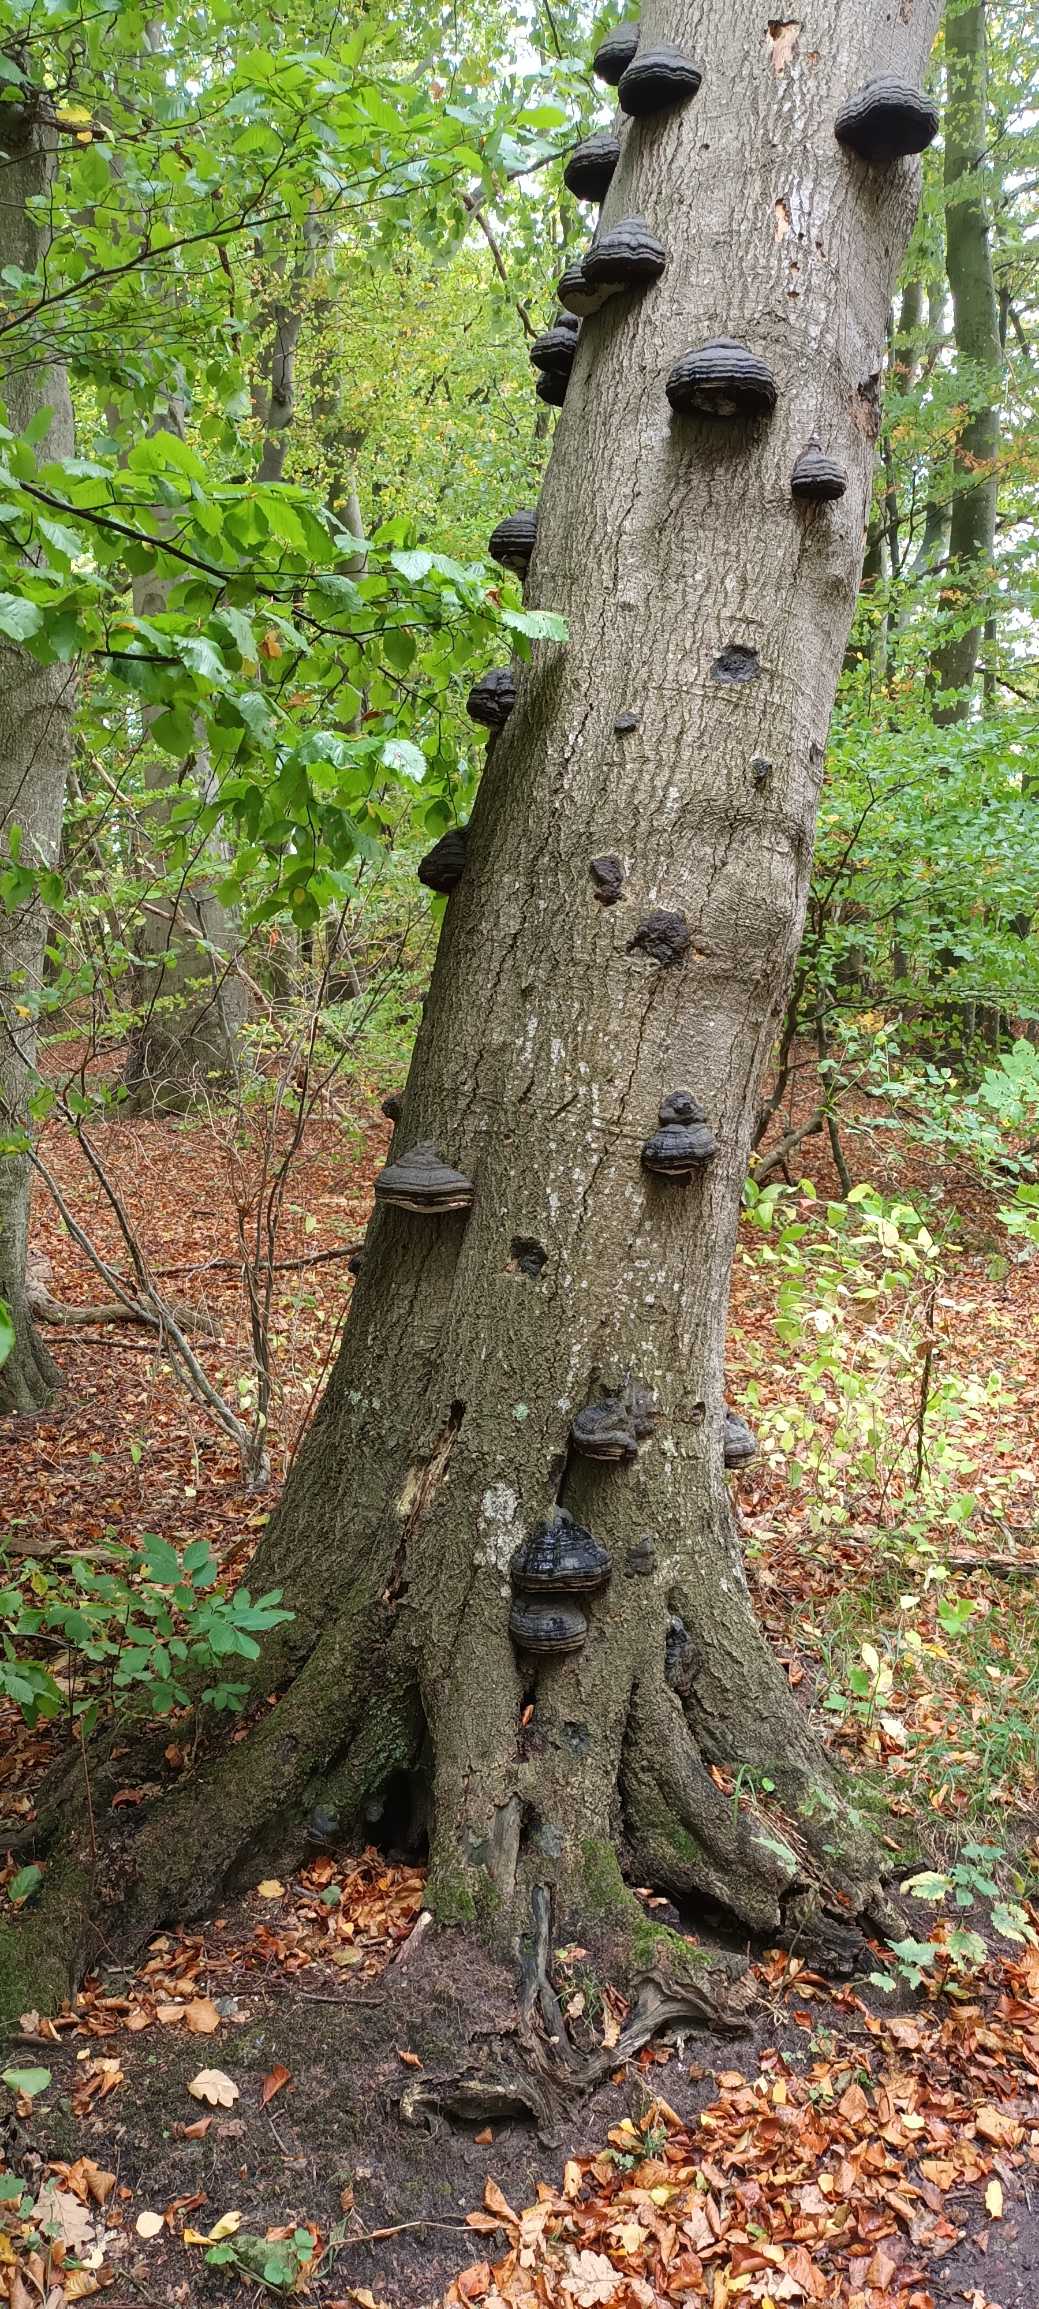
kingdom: Fungi
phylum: Basidiomycota
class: Agaricomycetes
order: Polyporales
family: Polyporaceae
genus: Fomes
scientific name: Fomes fomentarius
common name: Tøndersvamp
